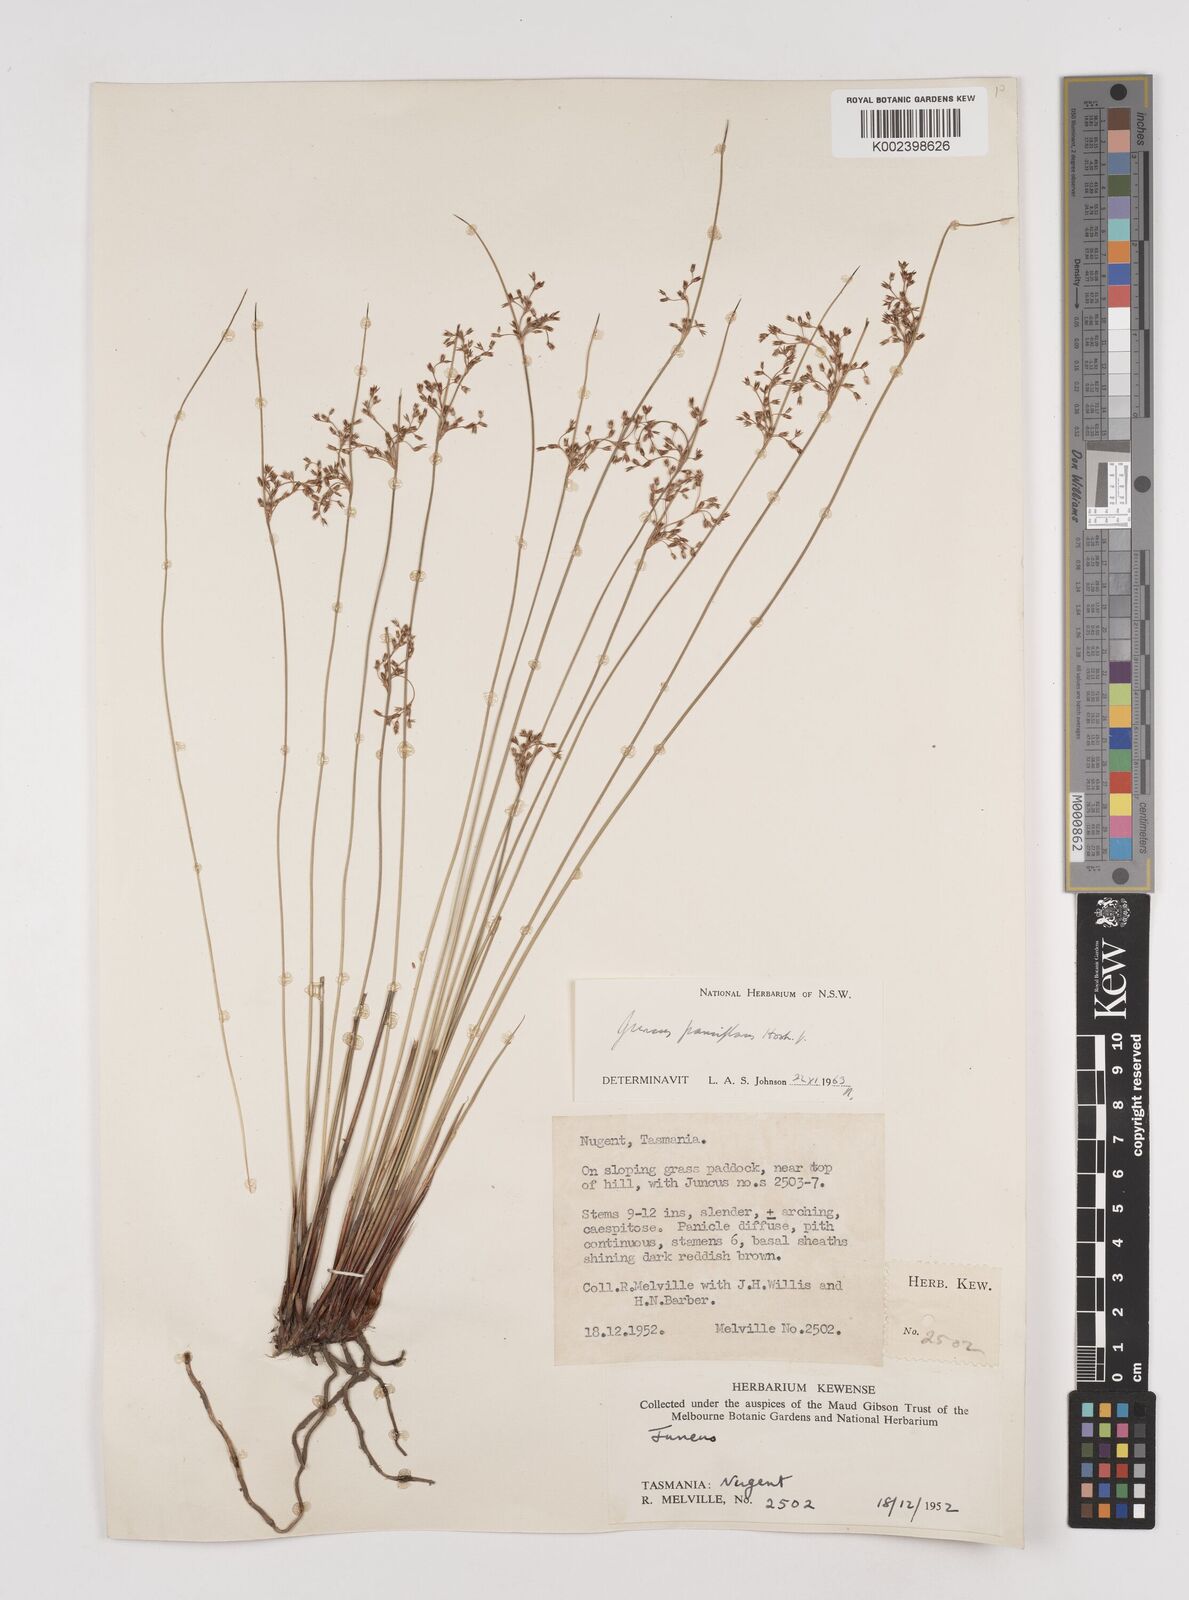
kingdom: Plantae
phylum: Tracheophyta
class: Liliopsida
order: Poales
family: Juncaceae
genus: Juncus
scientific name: Juncus pauciflorus
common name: Loose-flowered rush
